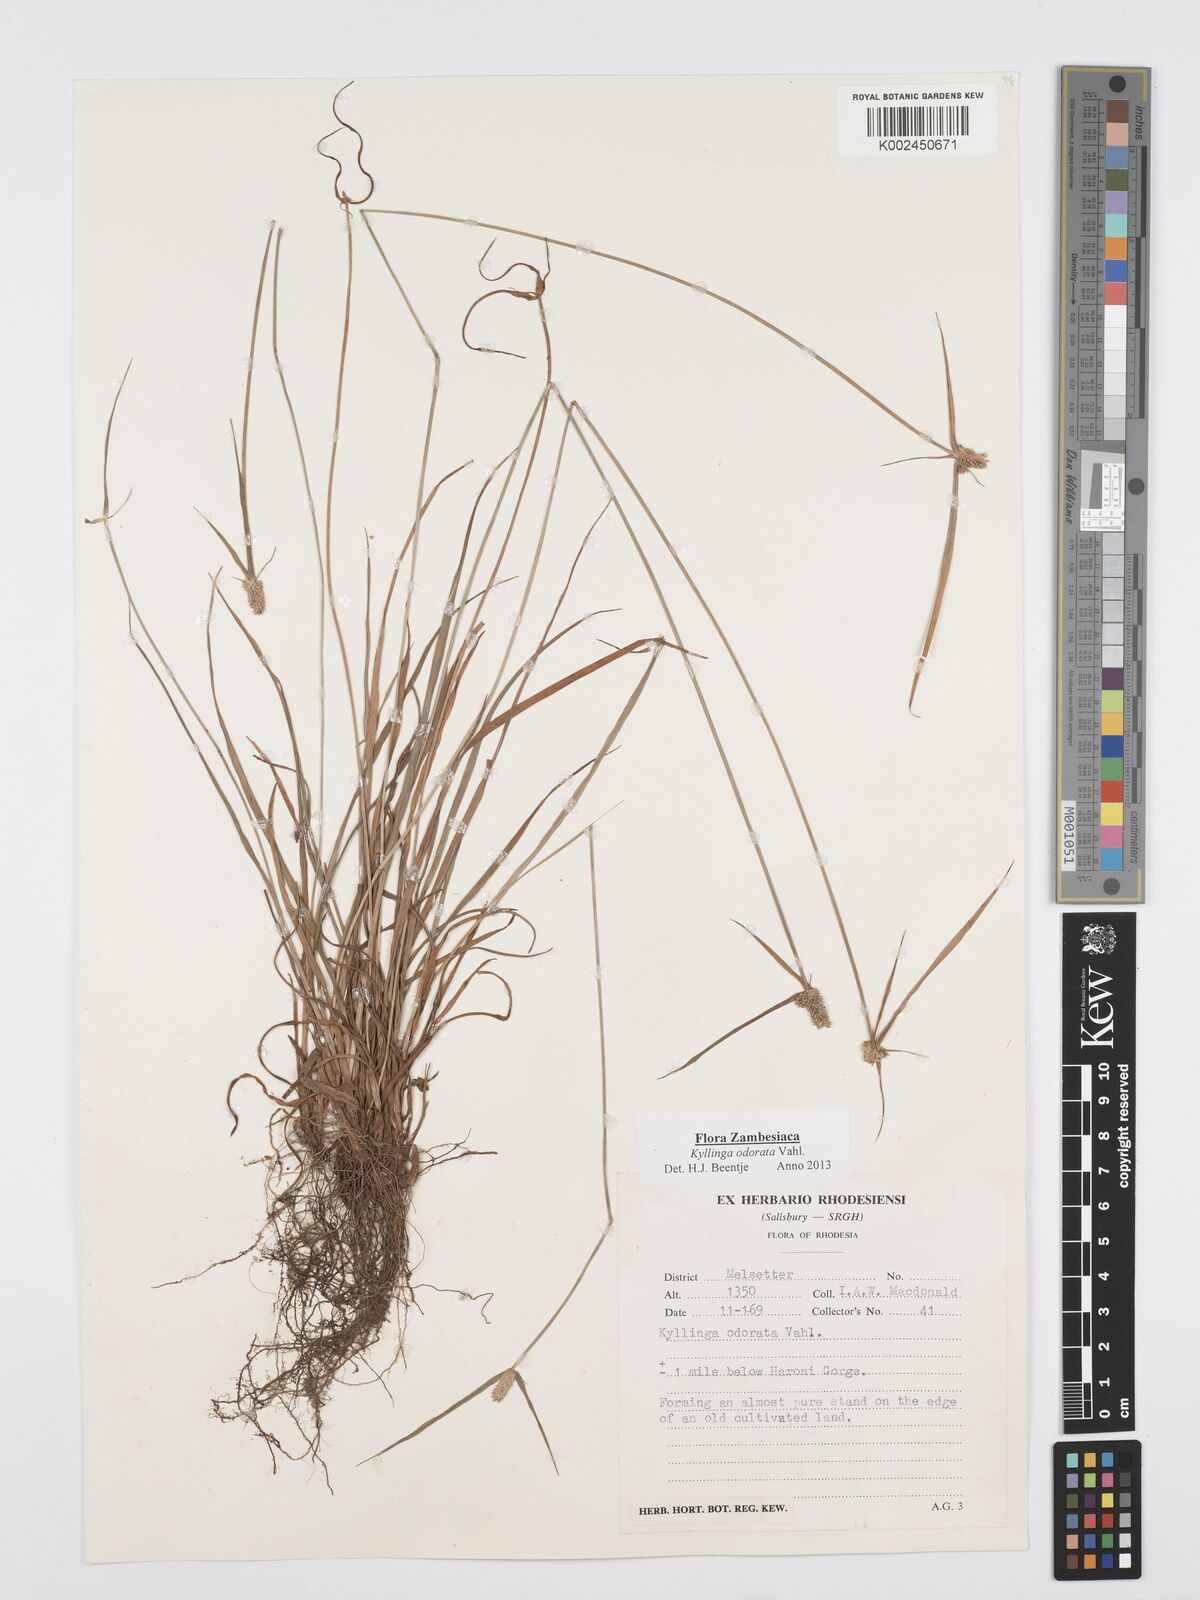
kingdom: Plantae
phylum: Tracheophyta
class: Liliopsida
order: Poales
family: Cyperaceae
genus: Cyperus
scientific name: Cyperus
